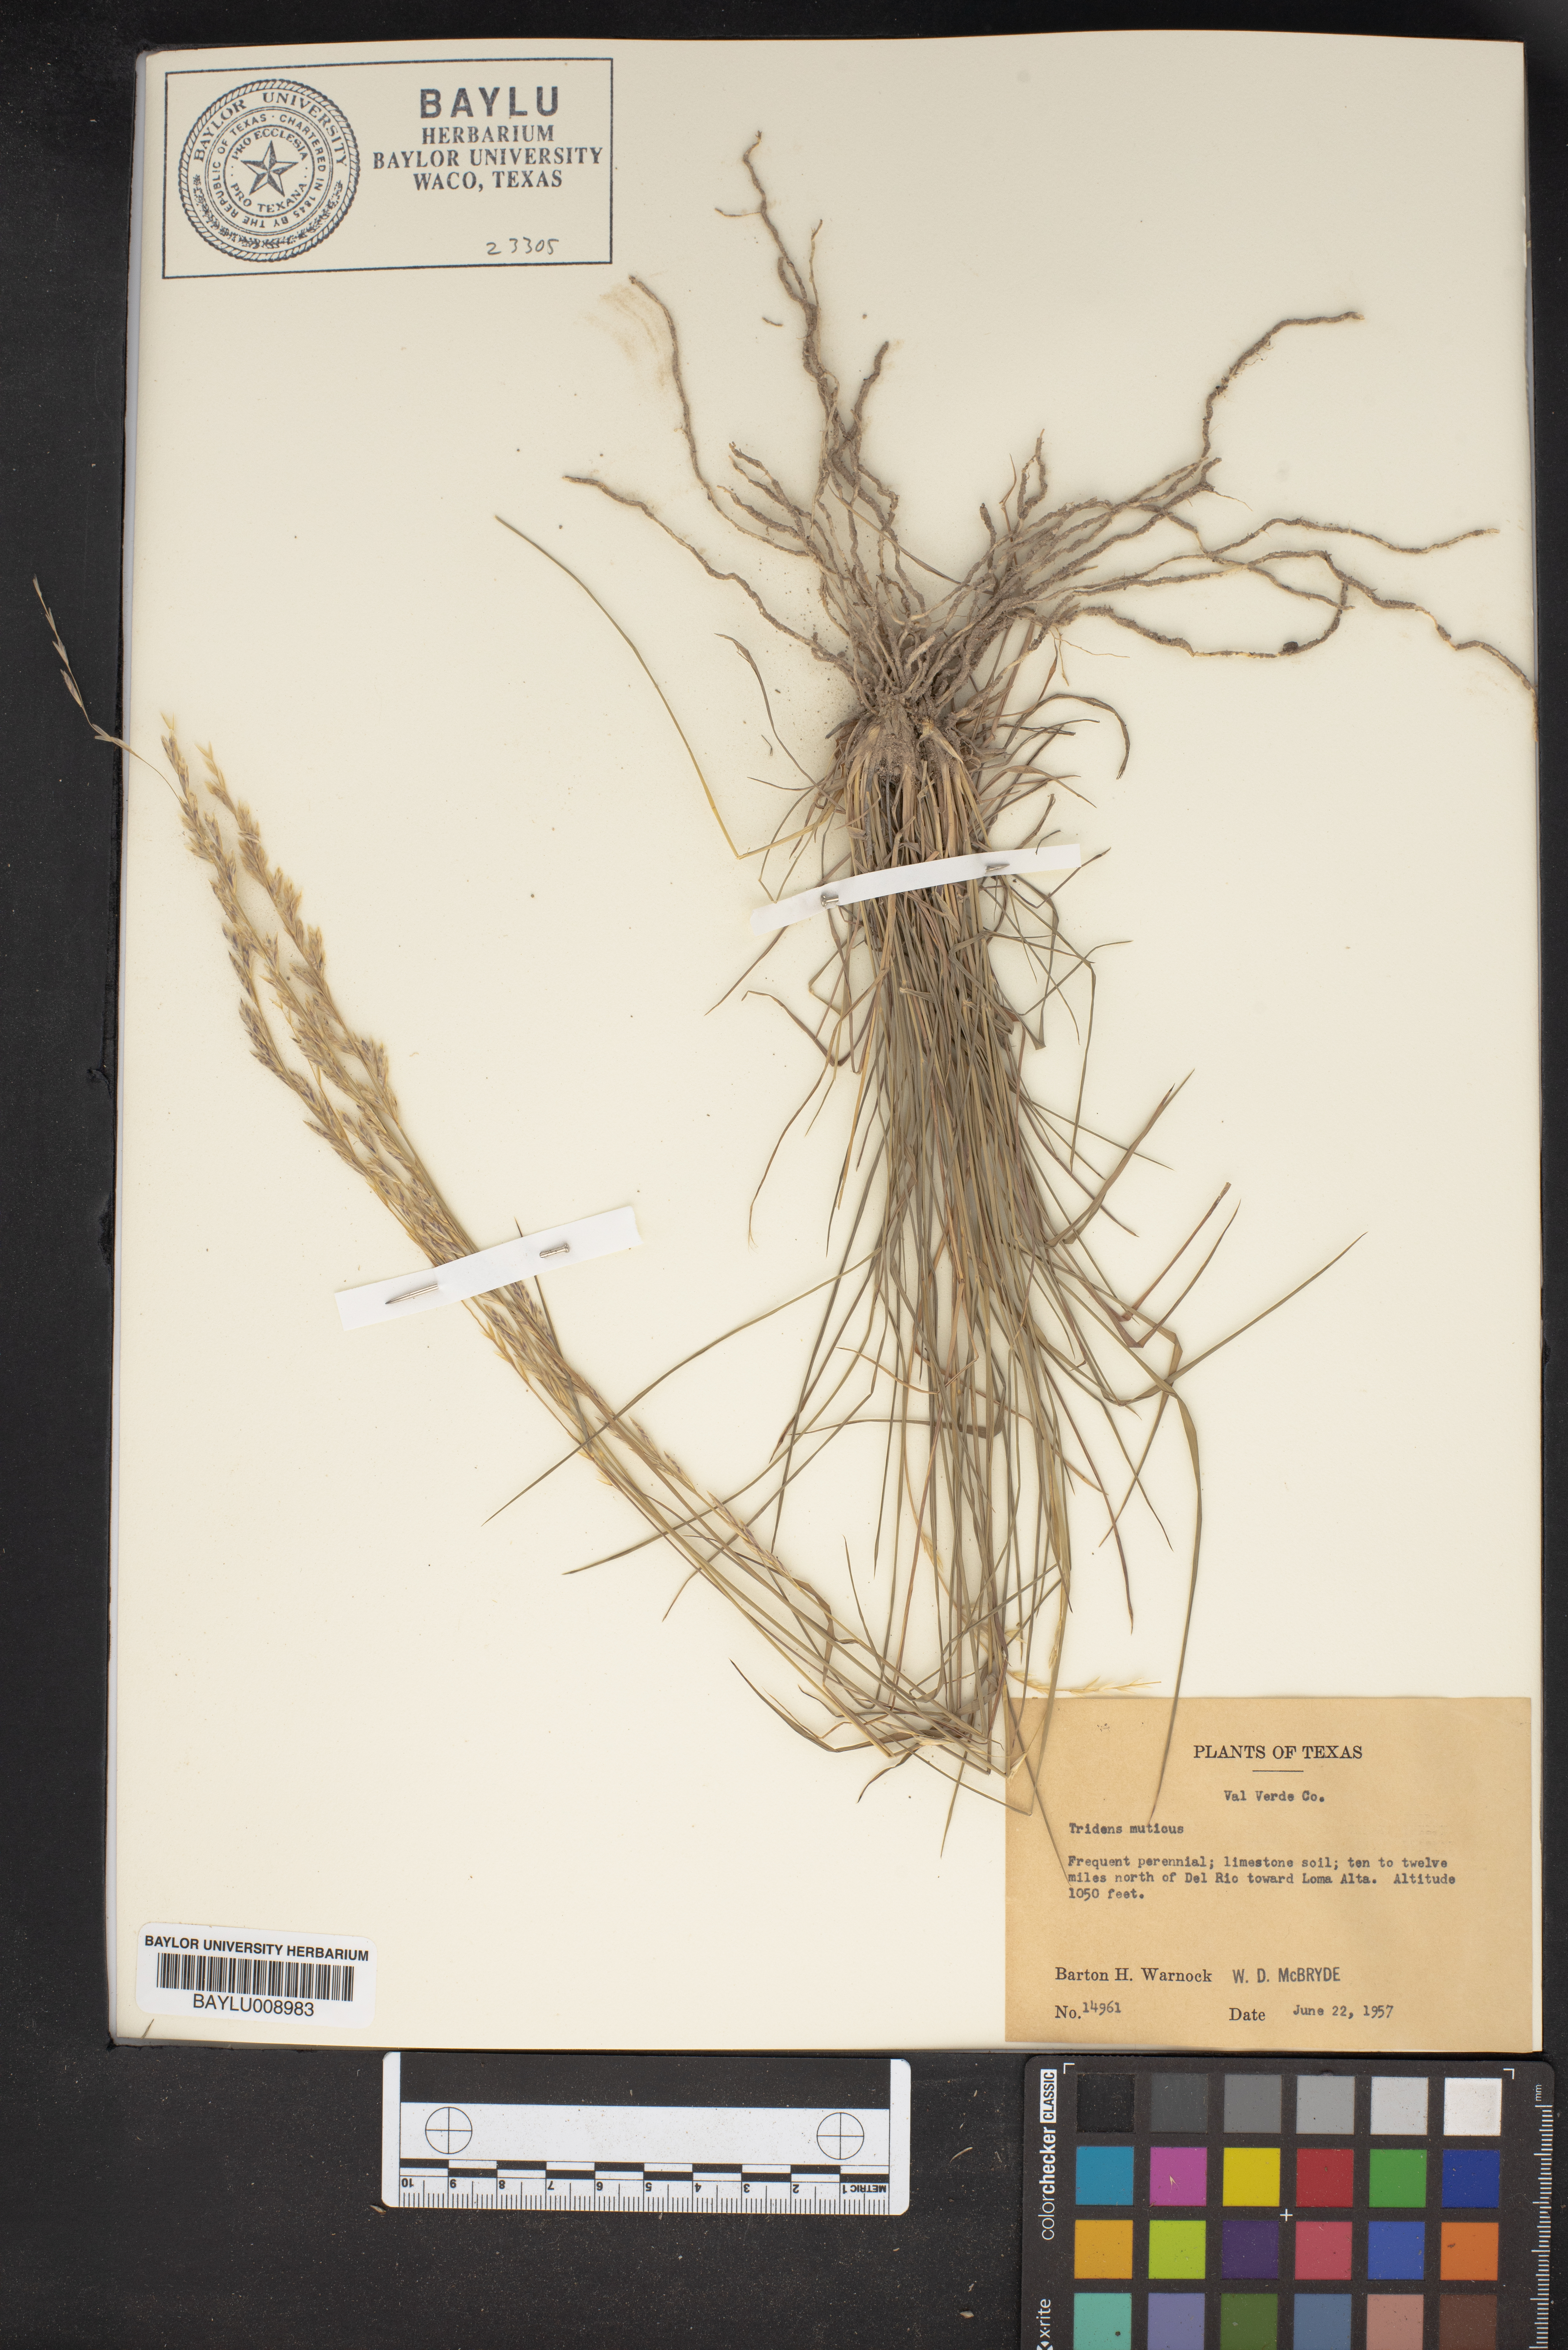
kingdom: Plantae
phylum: Tracheophyta
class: Liliopsida
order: Poales
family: Poaceae
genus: Tridentopsis
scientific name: Tridentopsis mutica
